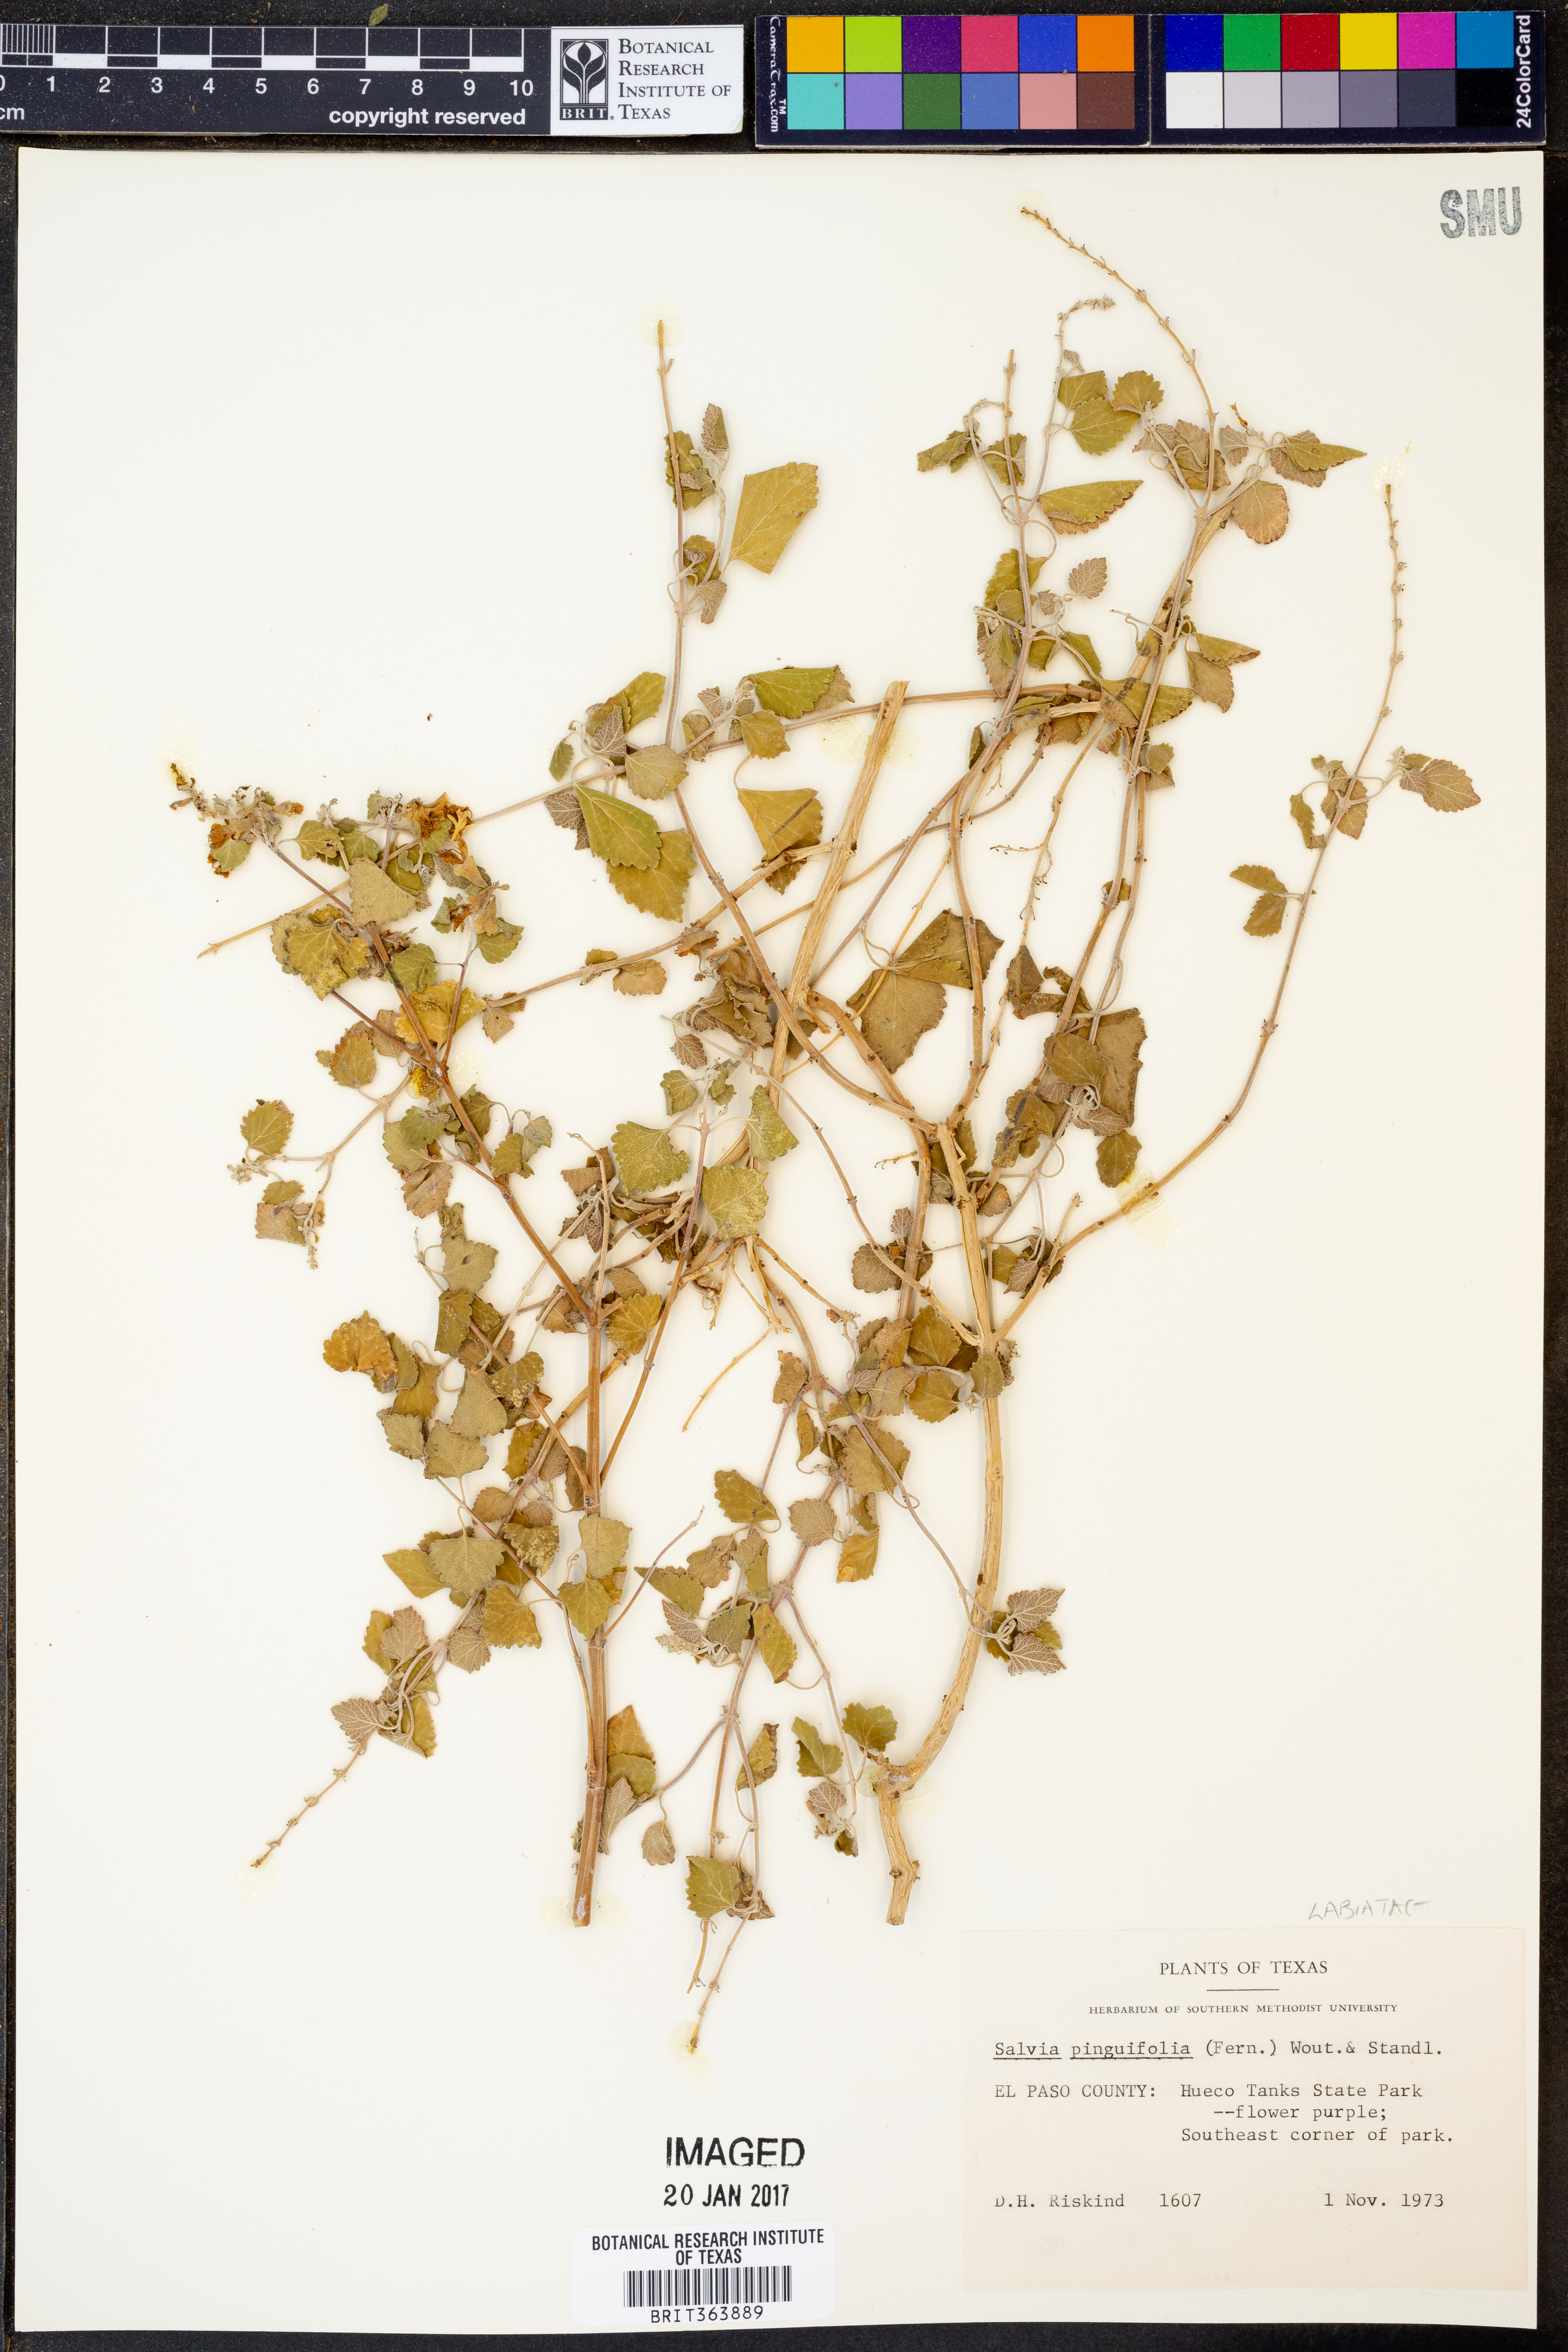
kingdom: Plantae
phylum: Tracheophyta
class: Magnoliopsida
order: Lamiales
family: Lamiaceae
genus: Salvia
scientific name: Salvia pinguifolia
